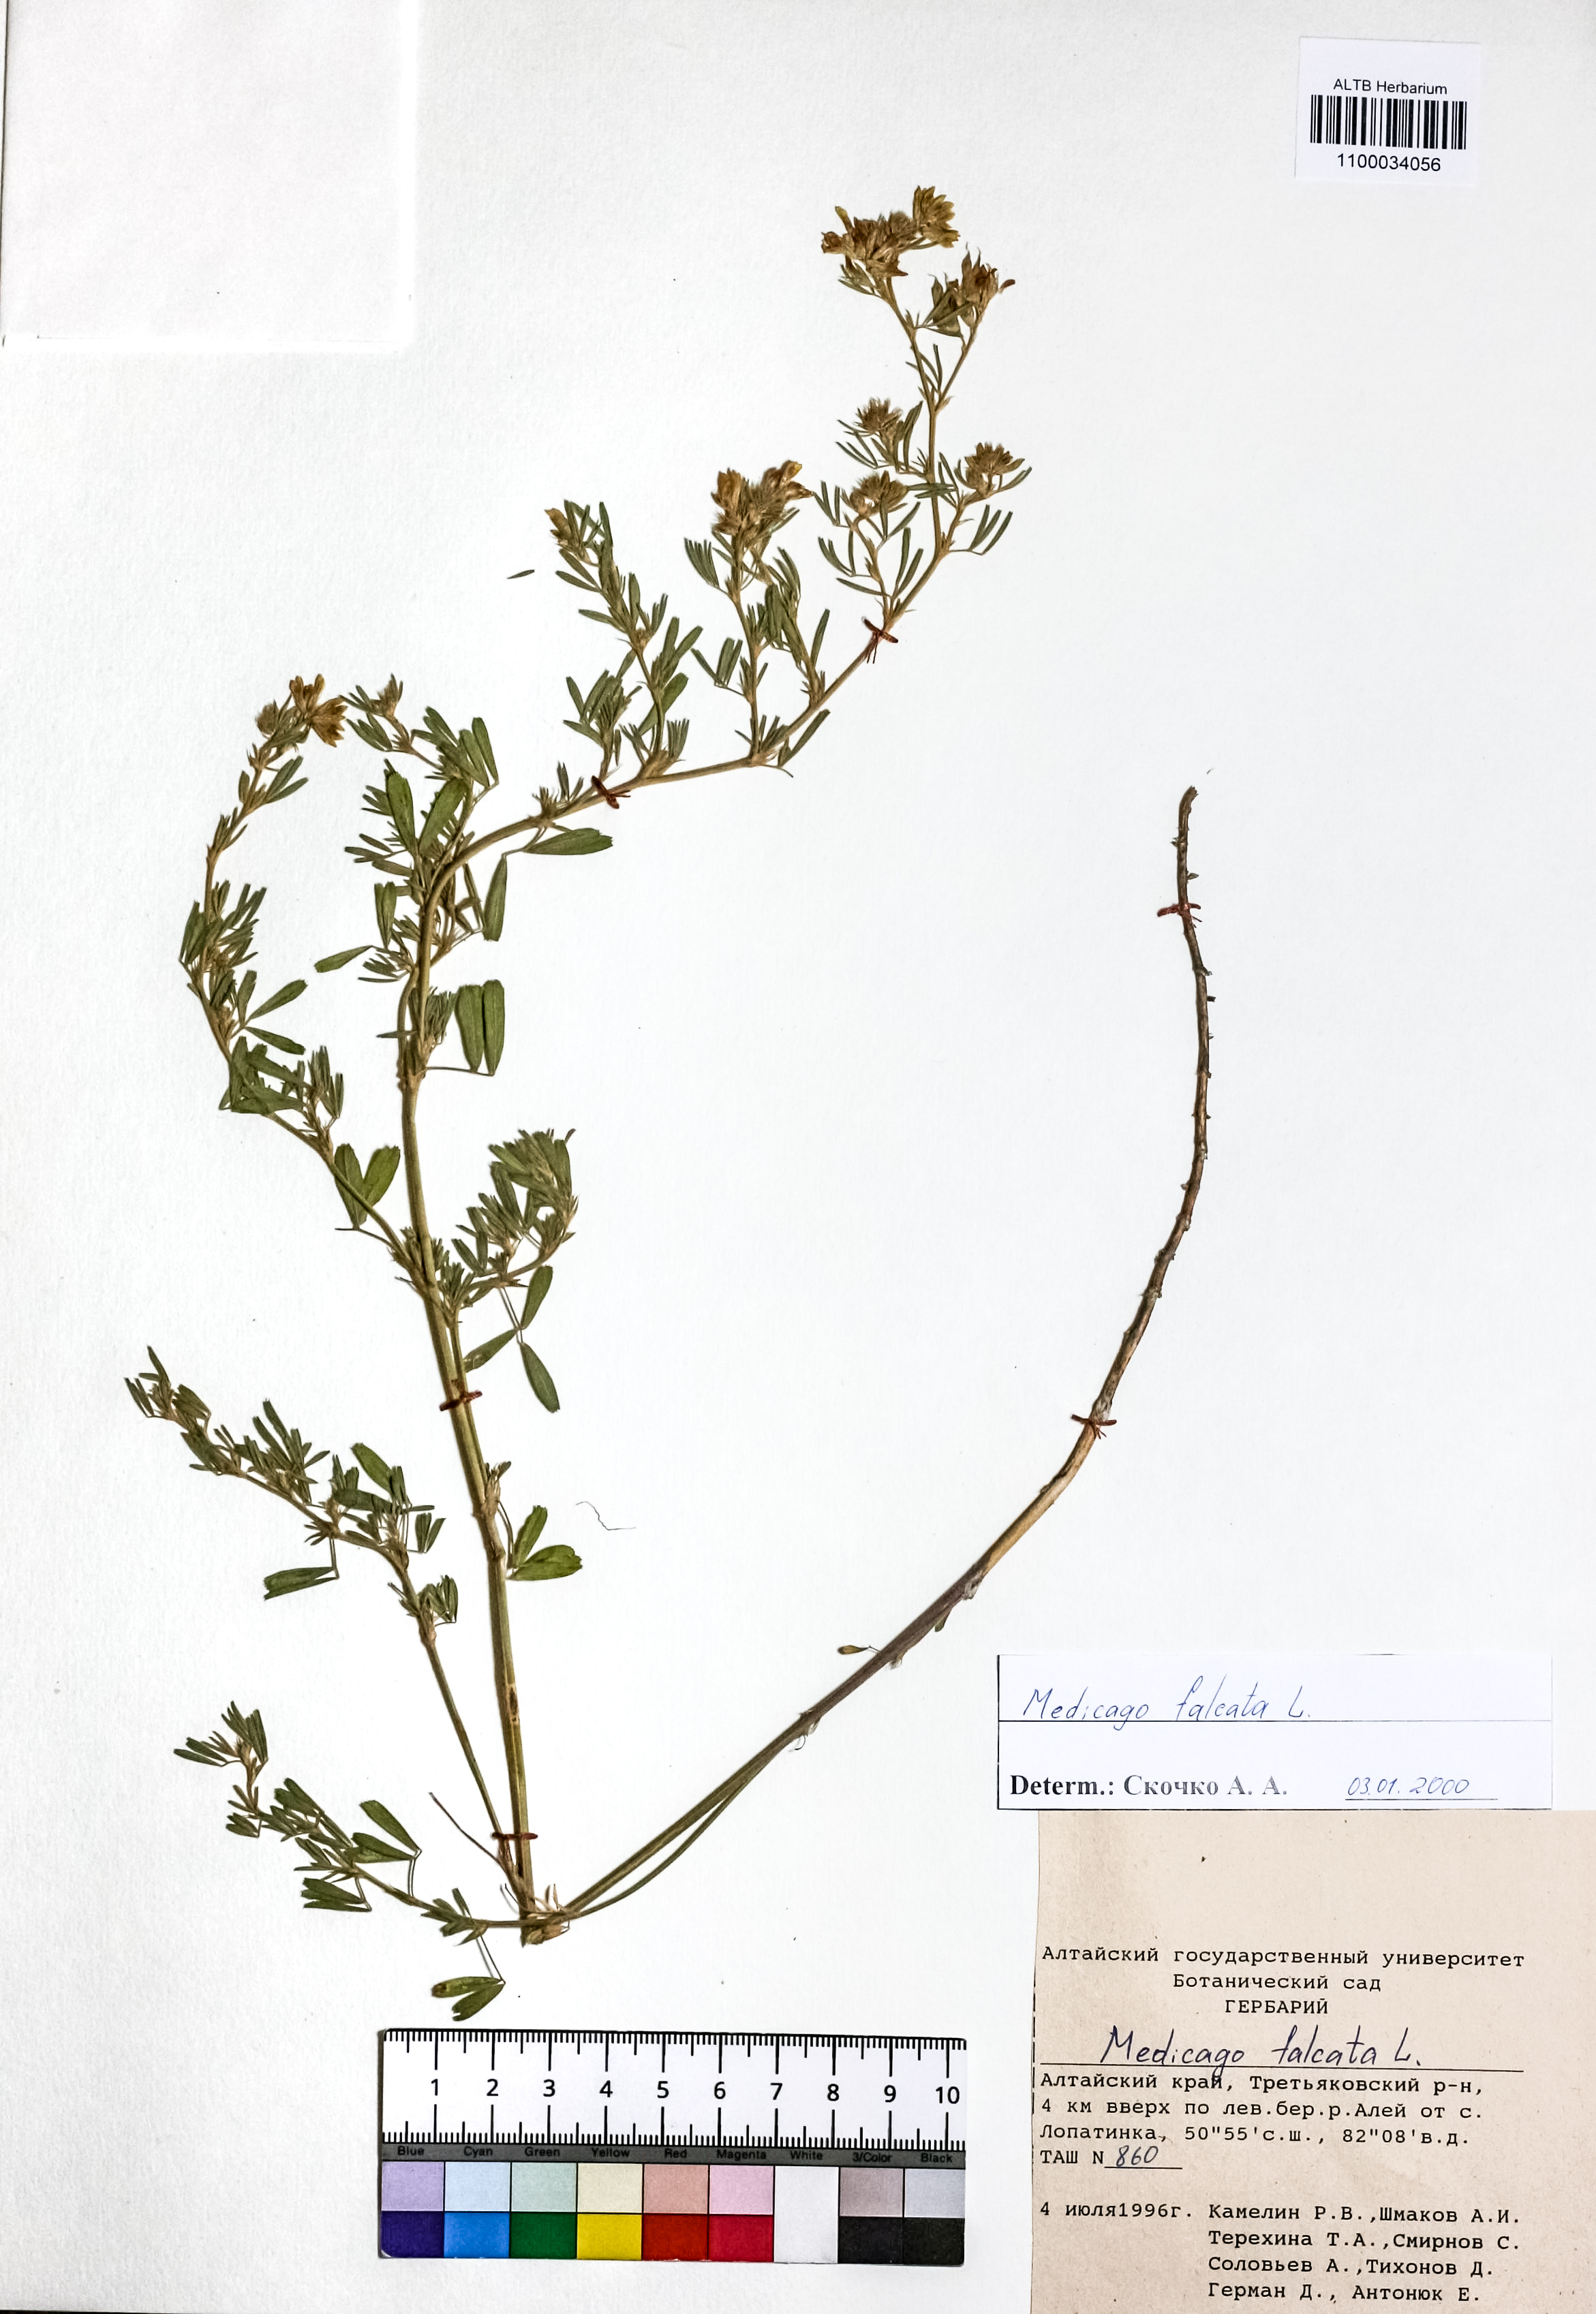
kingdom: Plantae
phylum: Tracheophyta
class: Magnoliopsida
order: Fabales
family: Fabaceae
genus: Medicago
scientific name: Medicago falcata
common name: Sickle medick
